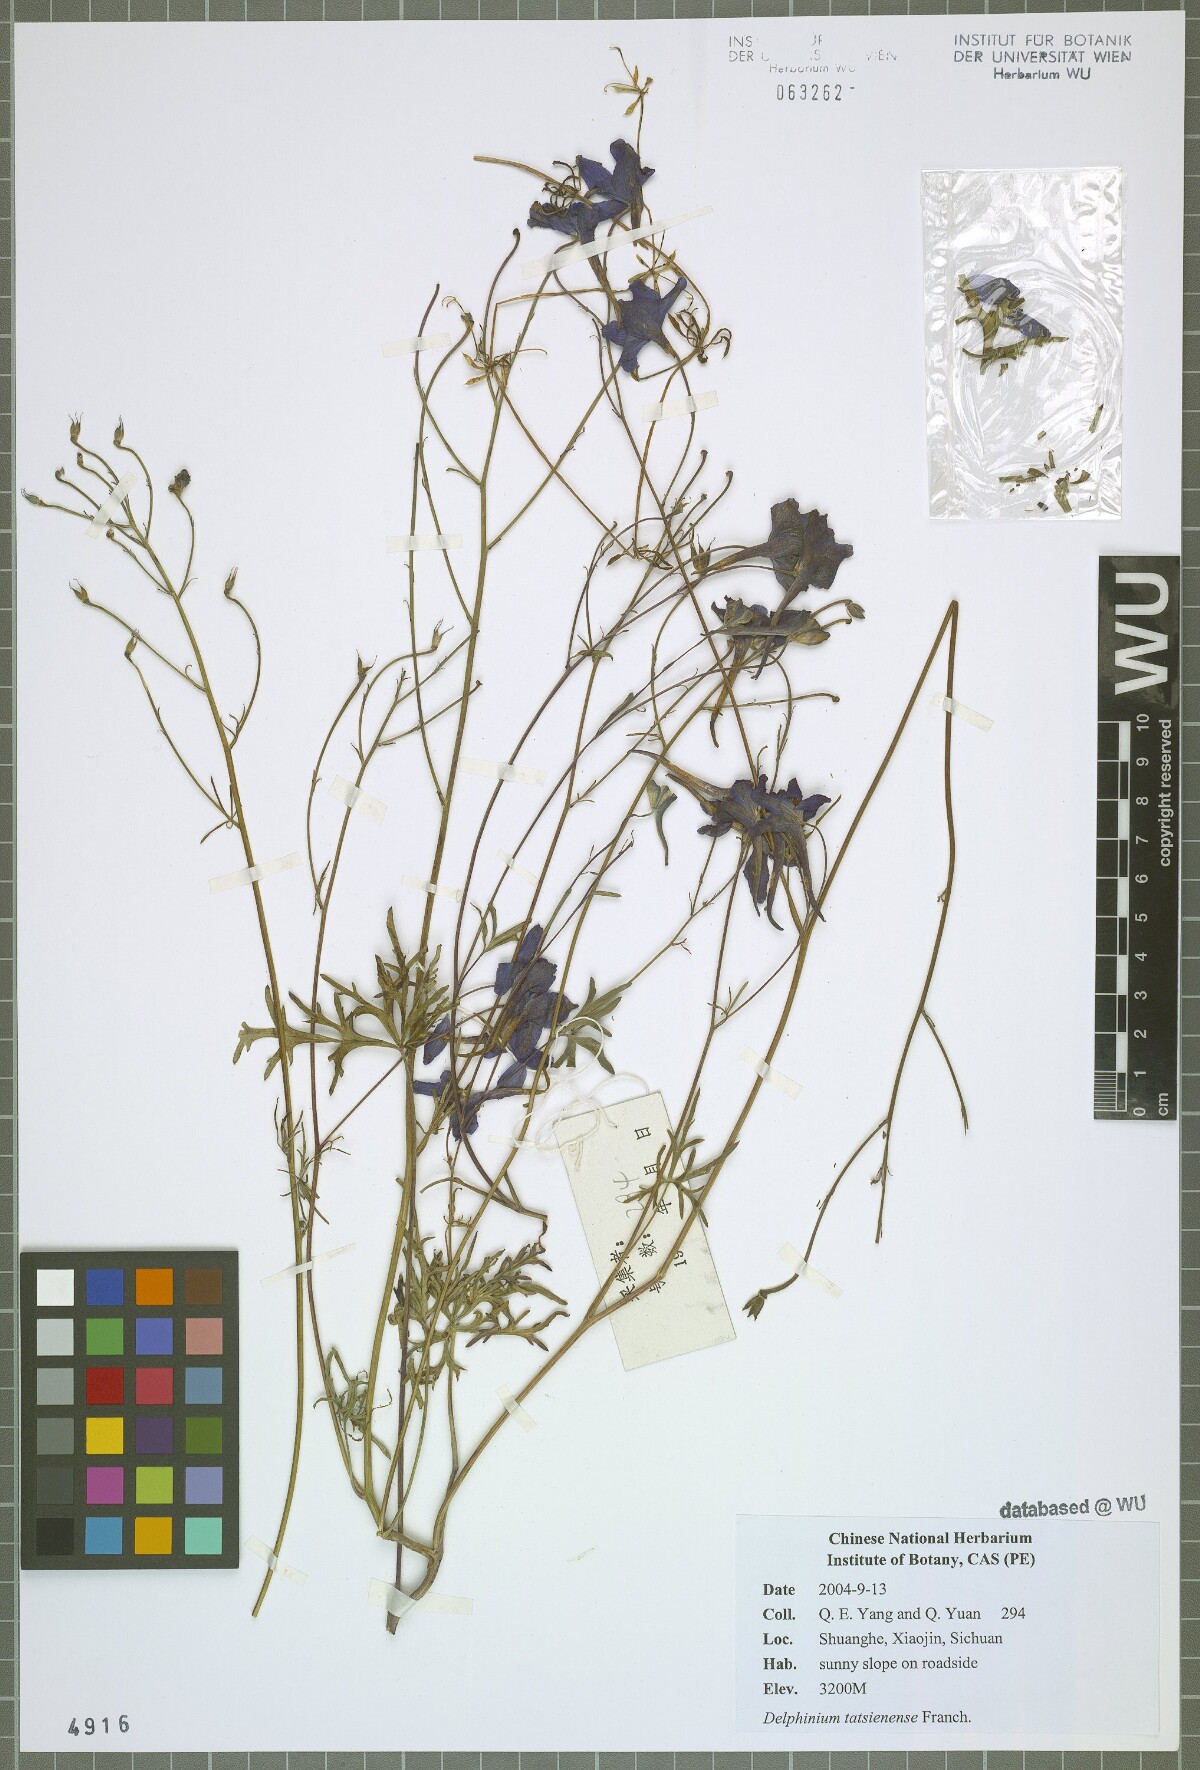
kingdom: Plantae
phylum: Tracheophyta
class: Magnoliopsida
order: Ranunculales
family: Ranunculaceae
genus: Delphinium
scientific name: Delphinium tatsienense
